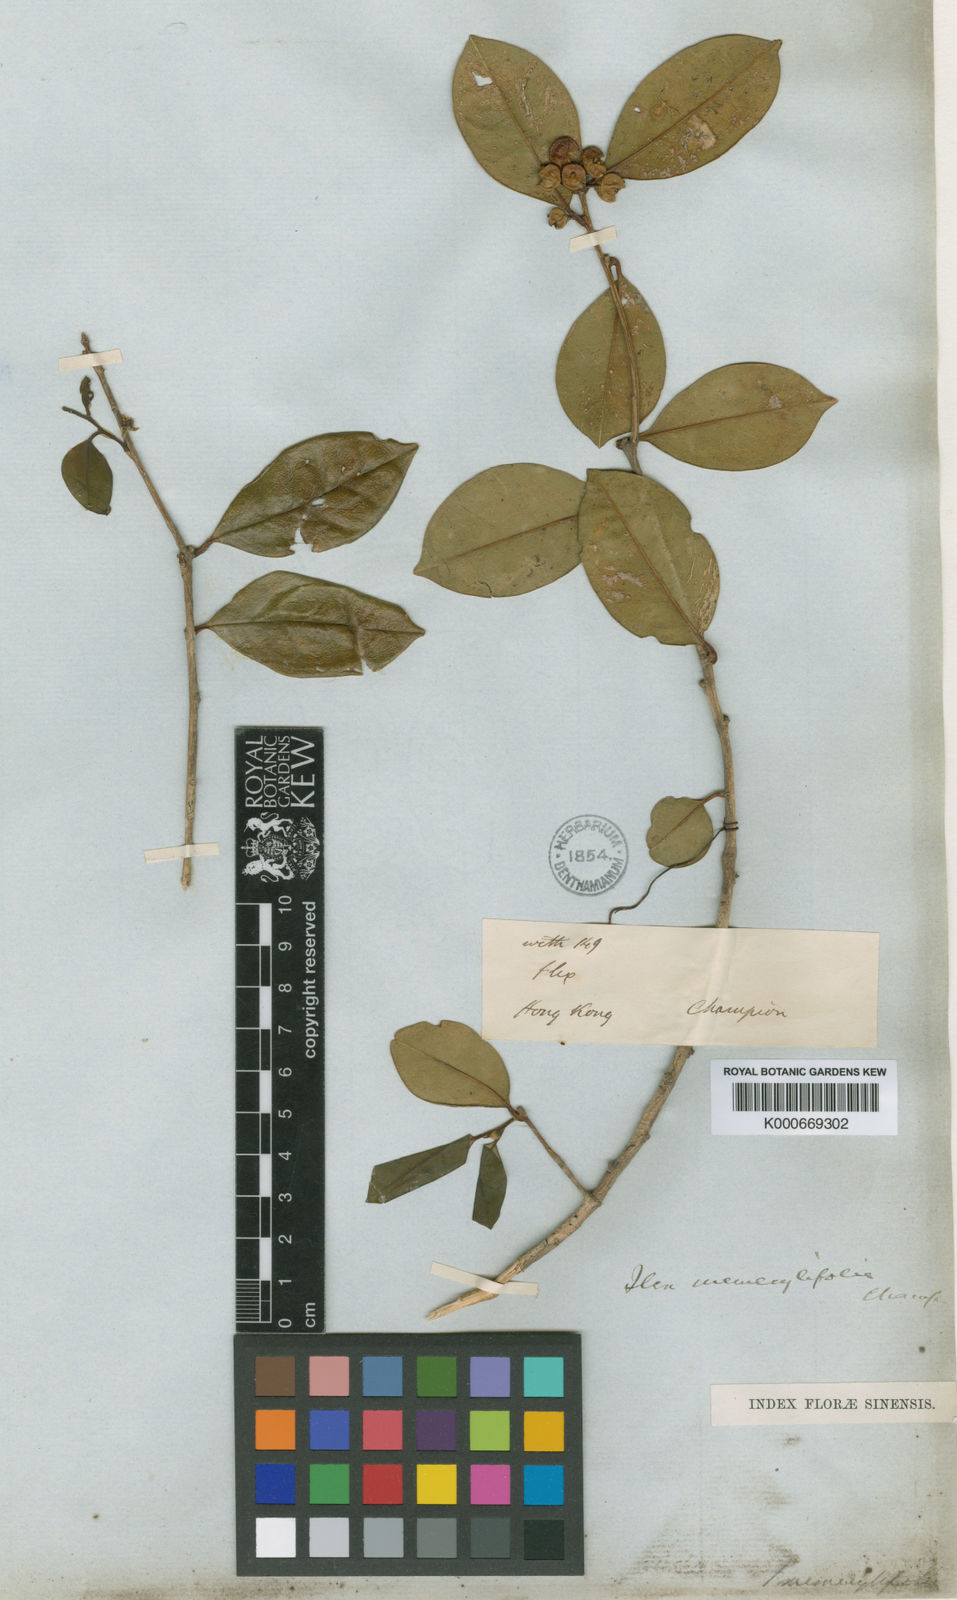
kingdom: Plantae
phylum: Tracheophyta
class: Magnoliopsida
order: Aquifoliales
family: Aquifoliaceae
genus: Ilex
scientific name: Ilex memecylifolia
